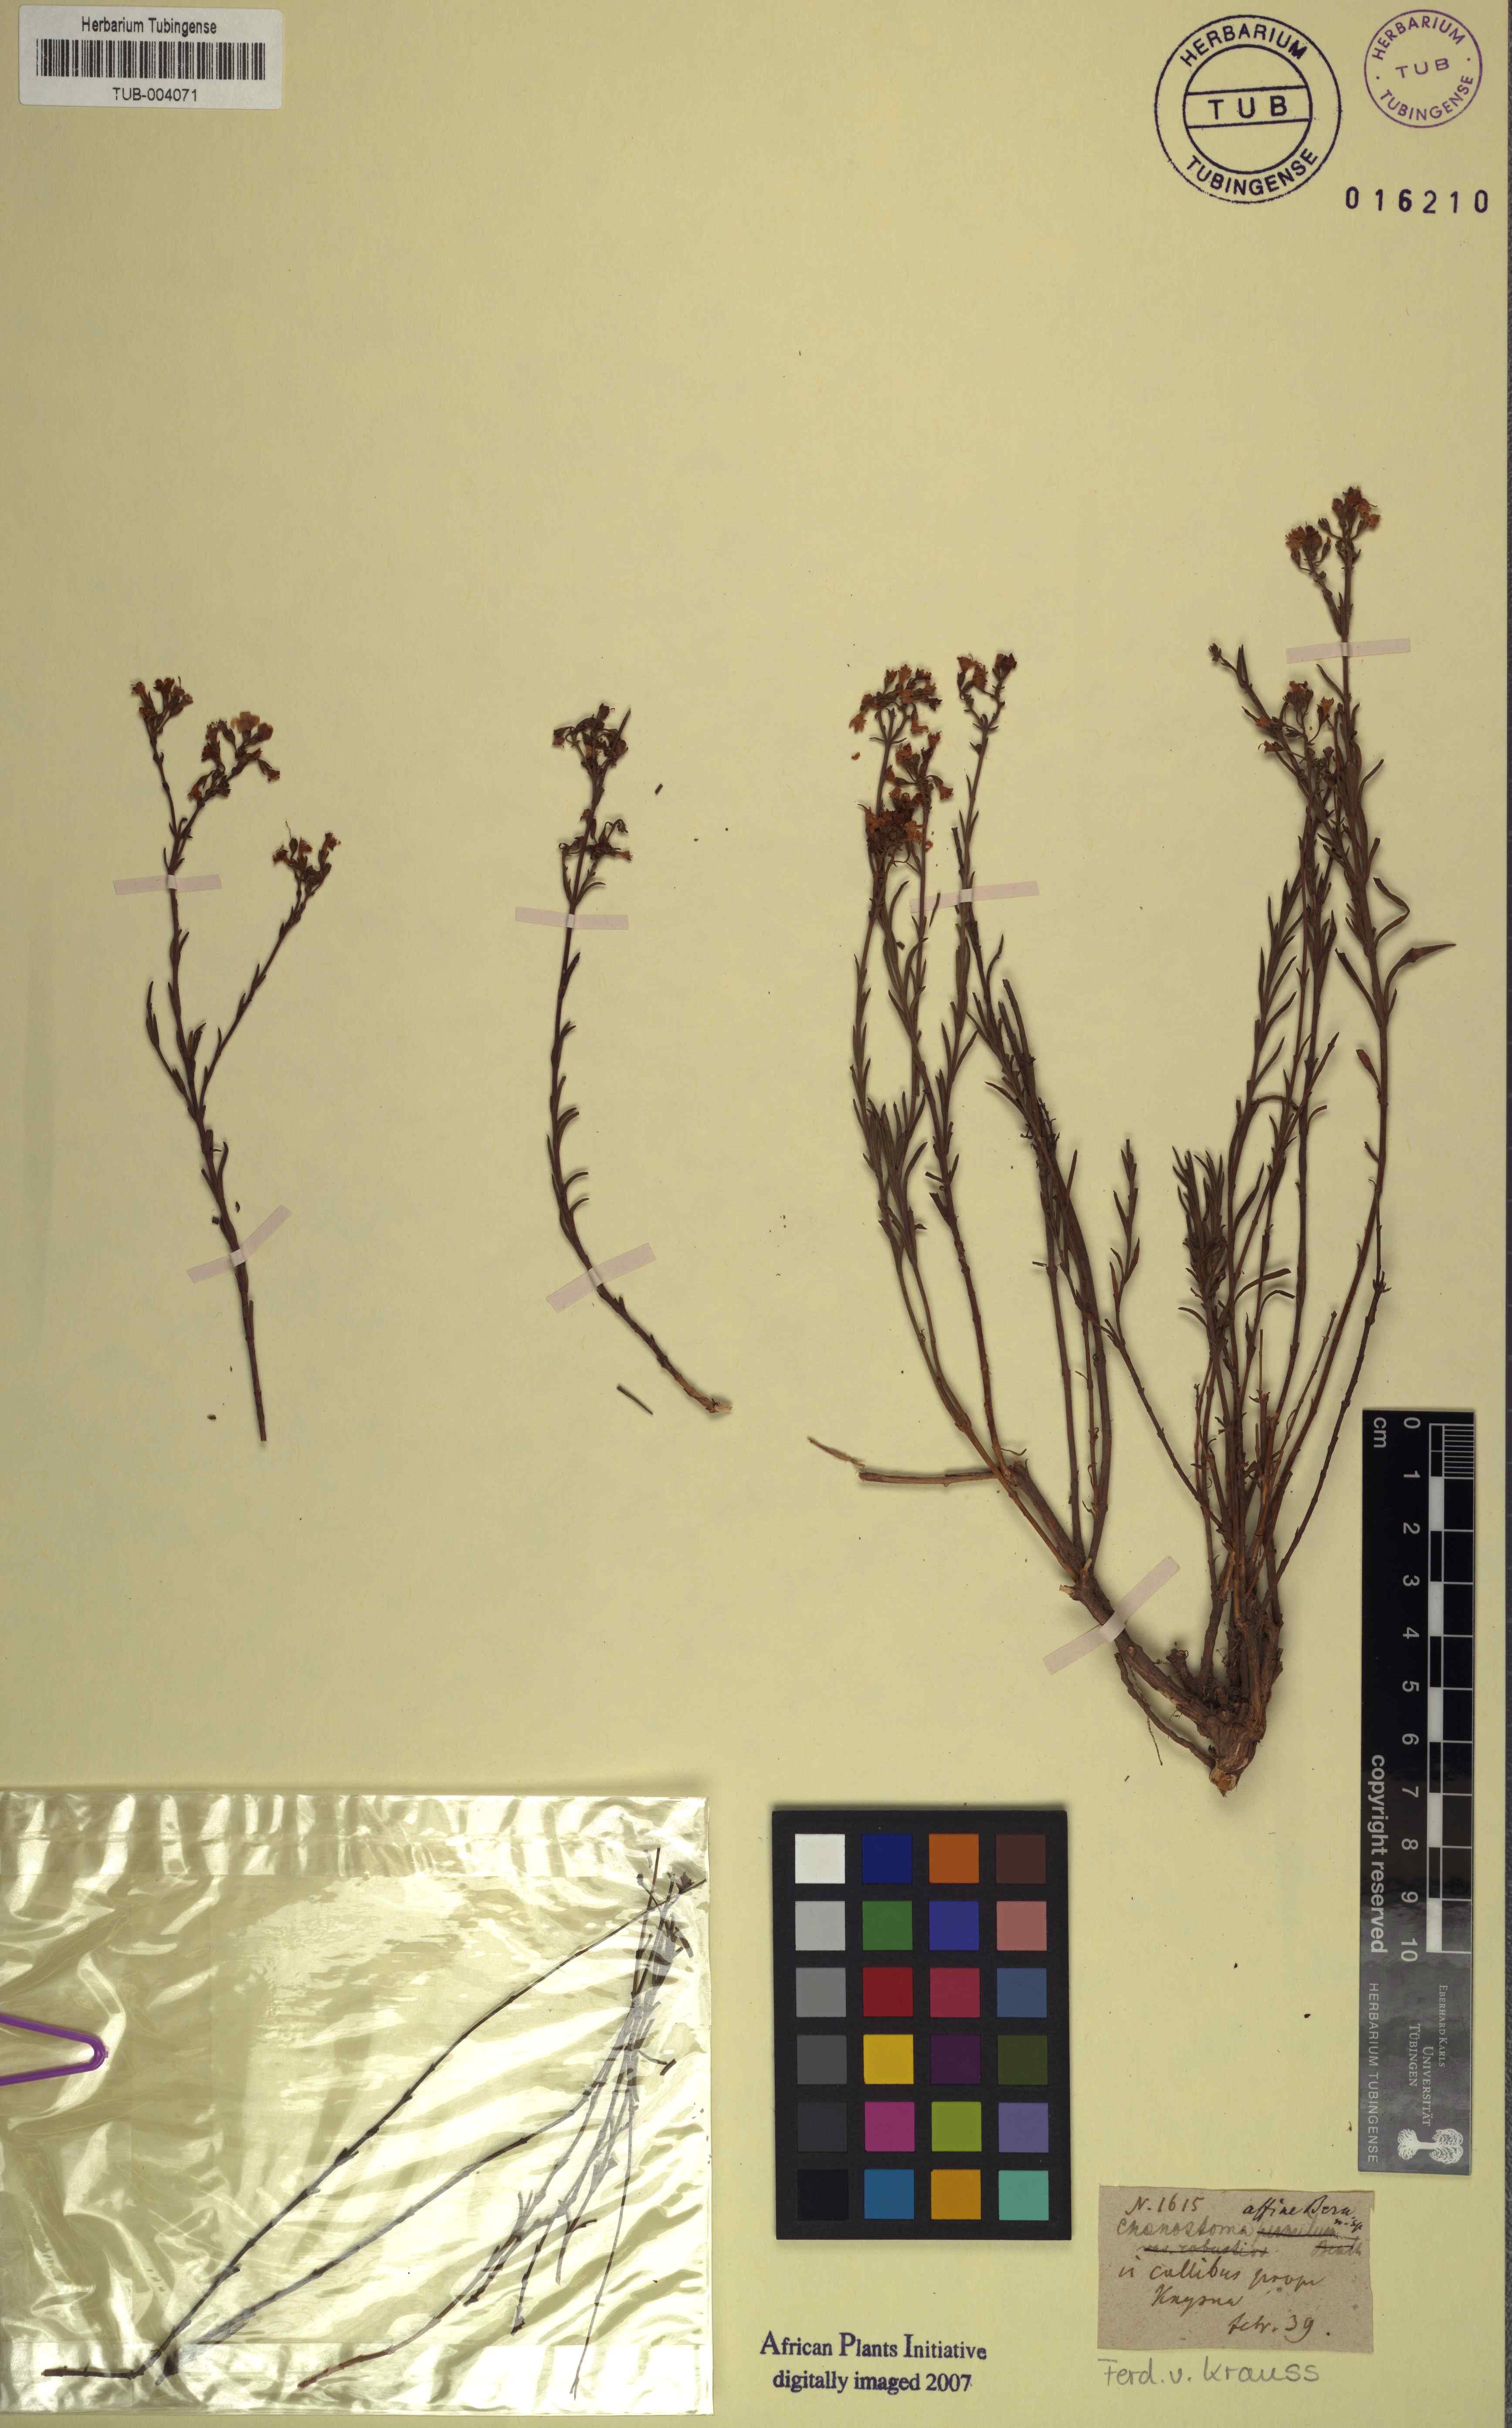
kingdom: Plantae
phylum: Tracheophyta
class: Magnoliopsida
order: Lamiales
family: Scrophulariaceae
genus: Chaenostoma
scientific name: Chaenostoma affine
